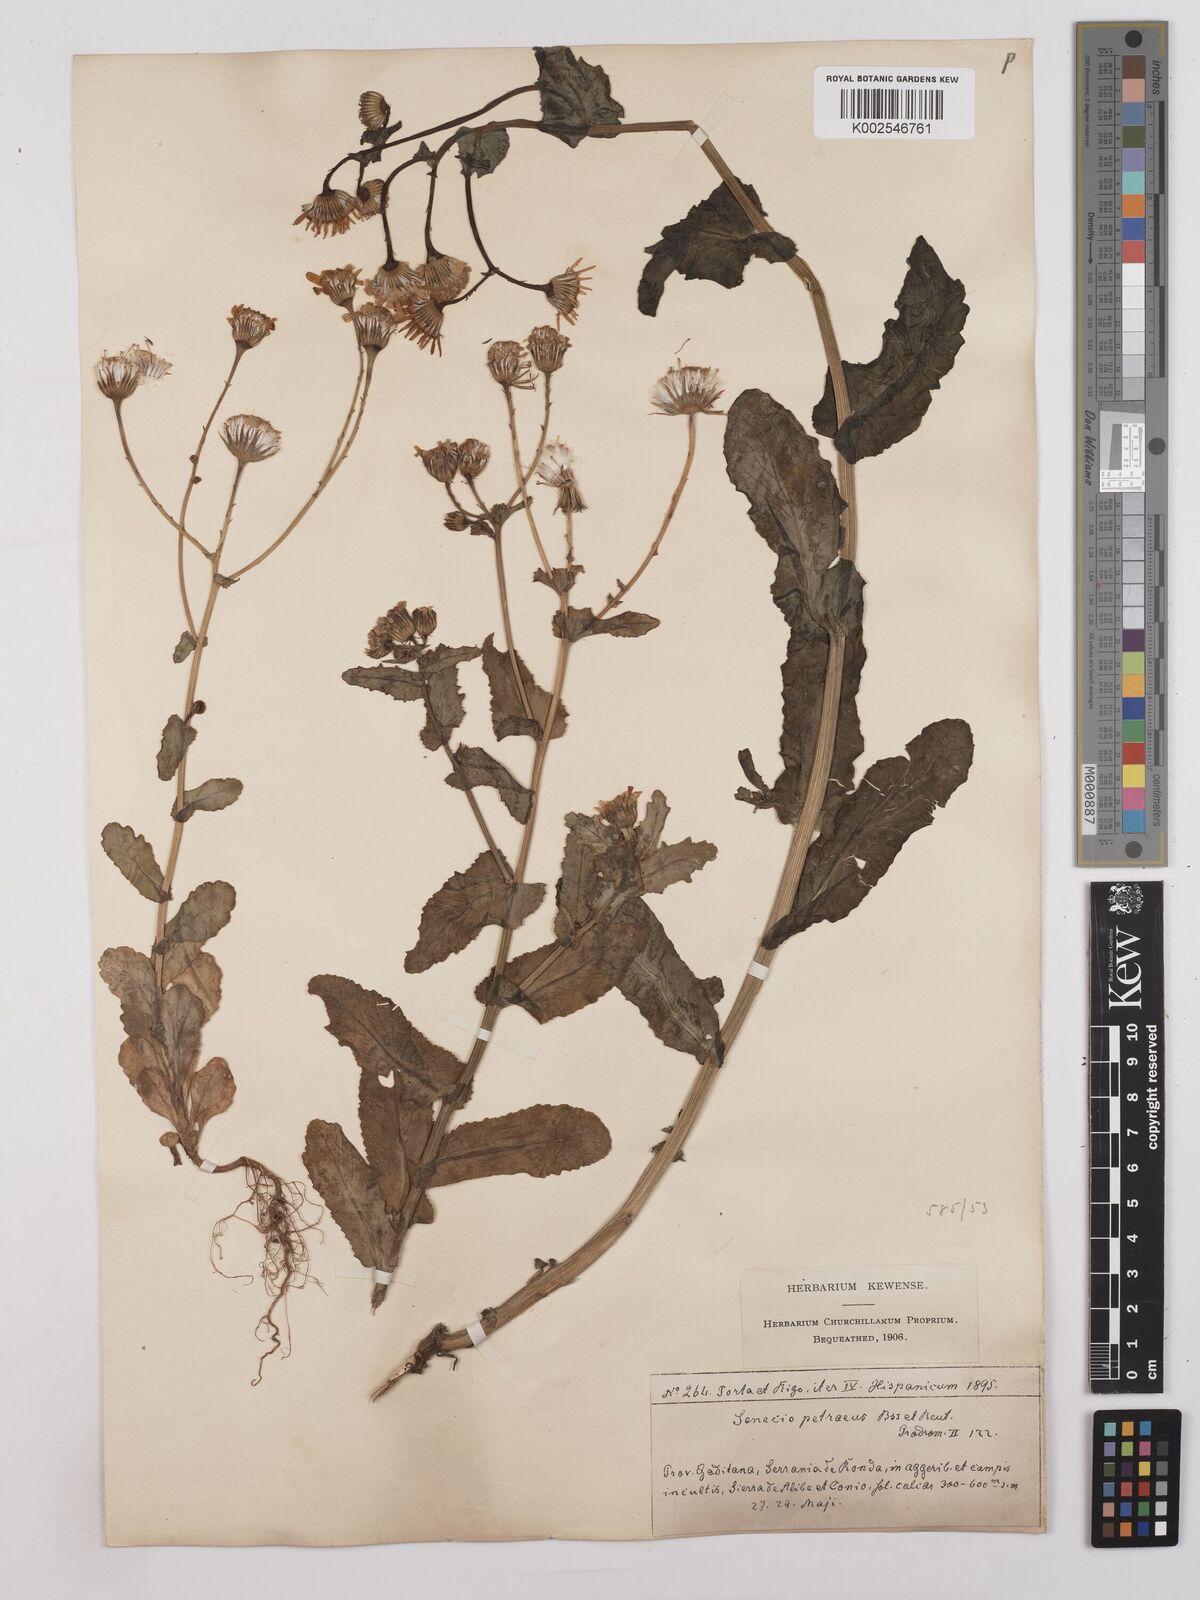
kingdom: Plantae
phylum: Tracheophyta
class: Magnoliopsida
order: Asterales
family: Asteraceae
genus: Kleinia
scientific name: Kleinia petraea
